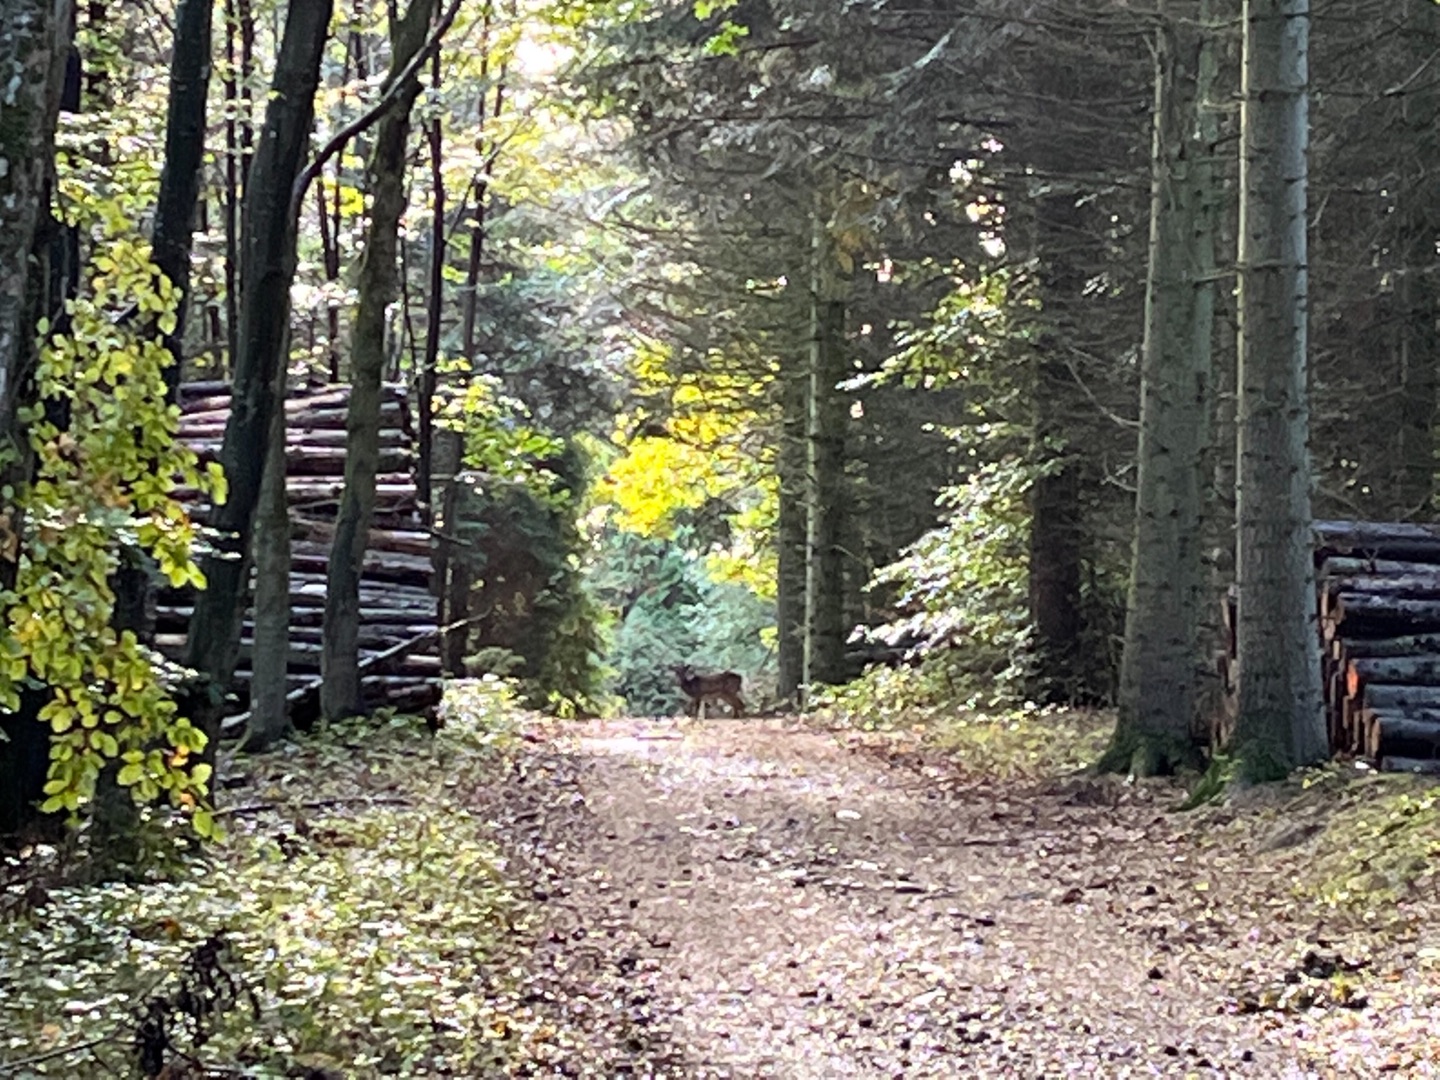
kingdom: Animalia
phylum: Chordata
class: Mammalia
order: Artiodactyla
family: Cervidae
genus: Dama
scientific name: Dama dama
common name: Dådyr
